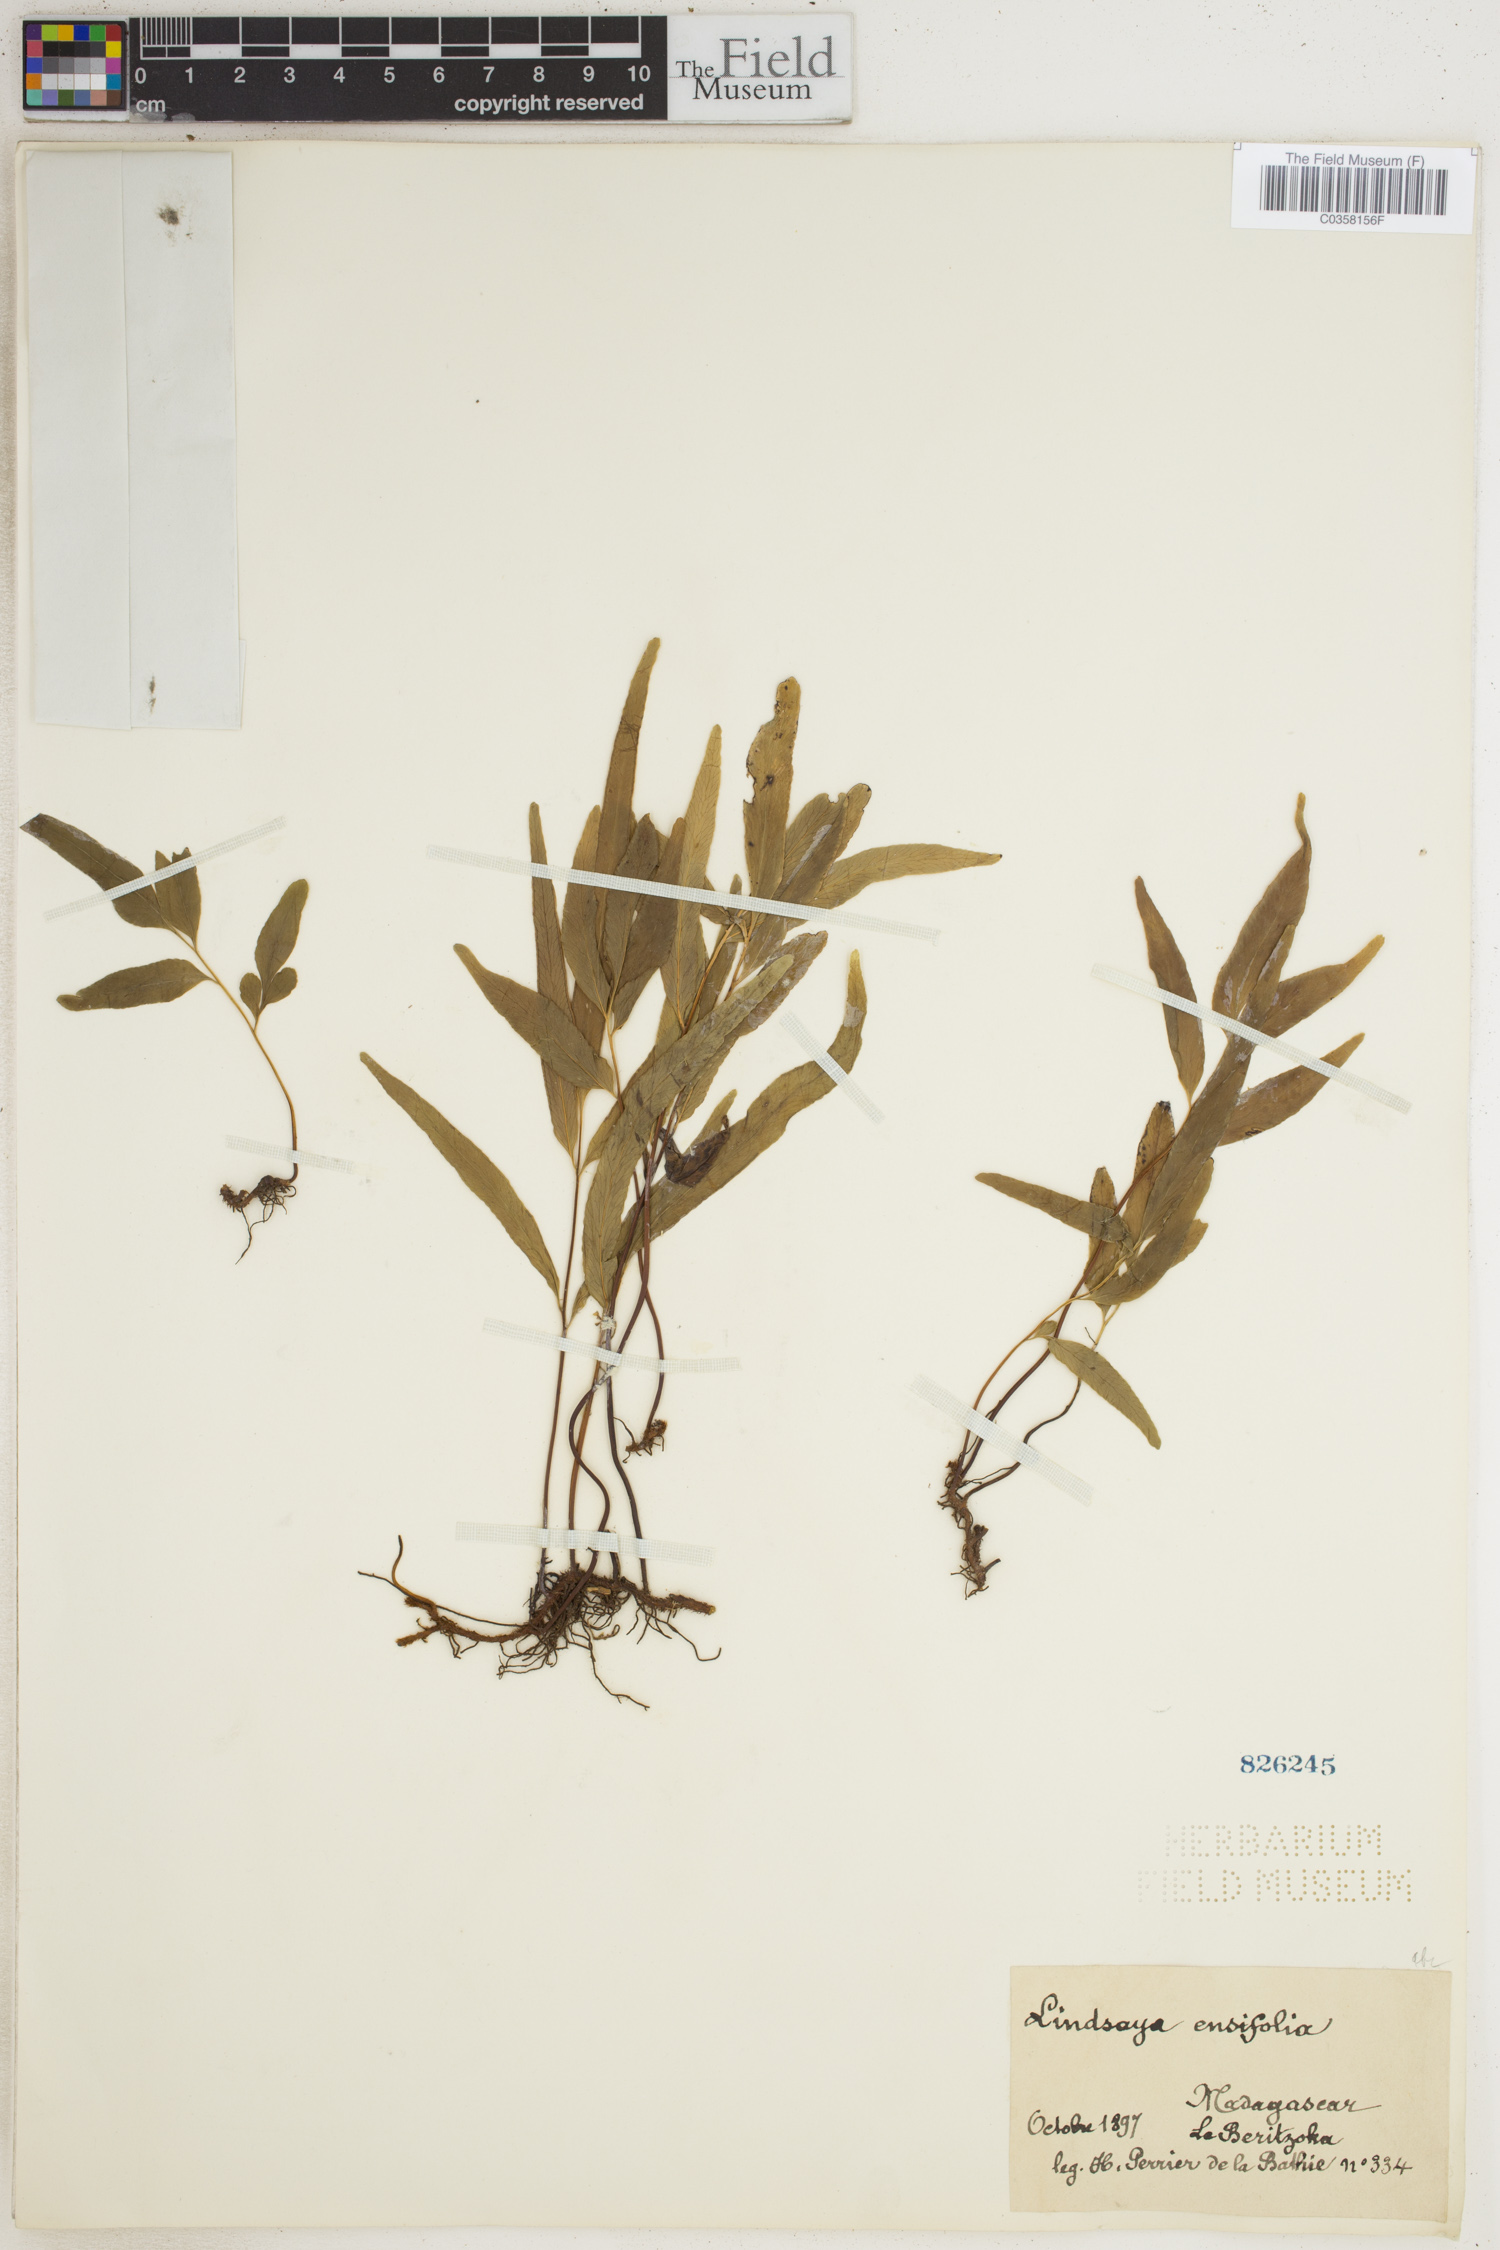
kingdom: Plantae
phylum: Tracheophyta
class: Polypodiopsida
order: Polypodiales
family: Lindsaeaceae
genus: Lindsaea
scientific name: Lindsaea ensifolia
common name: Graceful necklace fern
